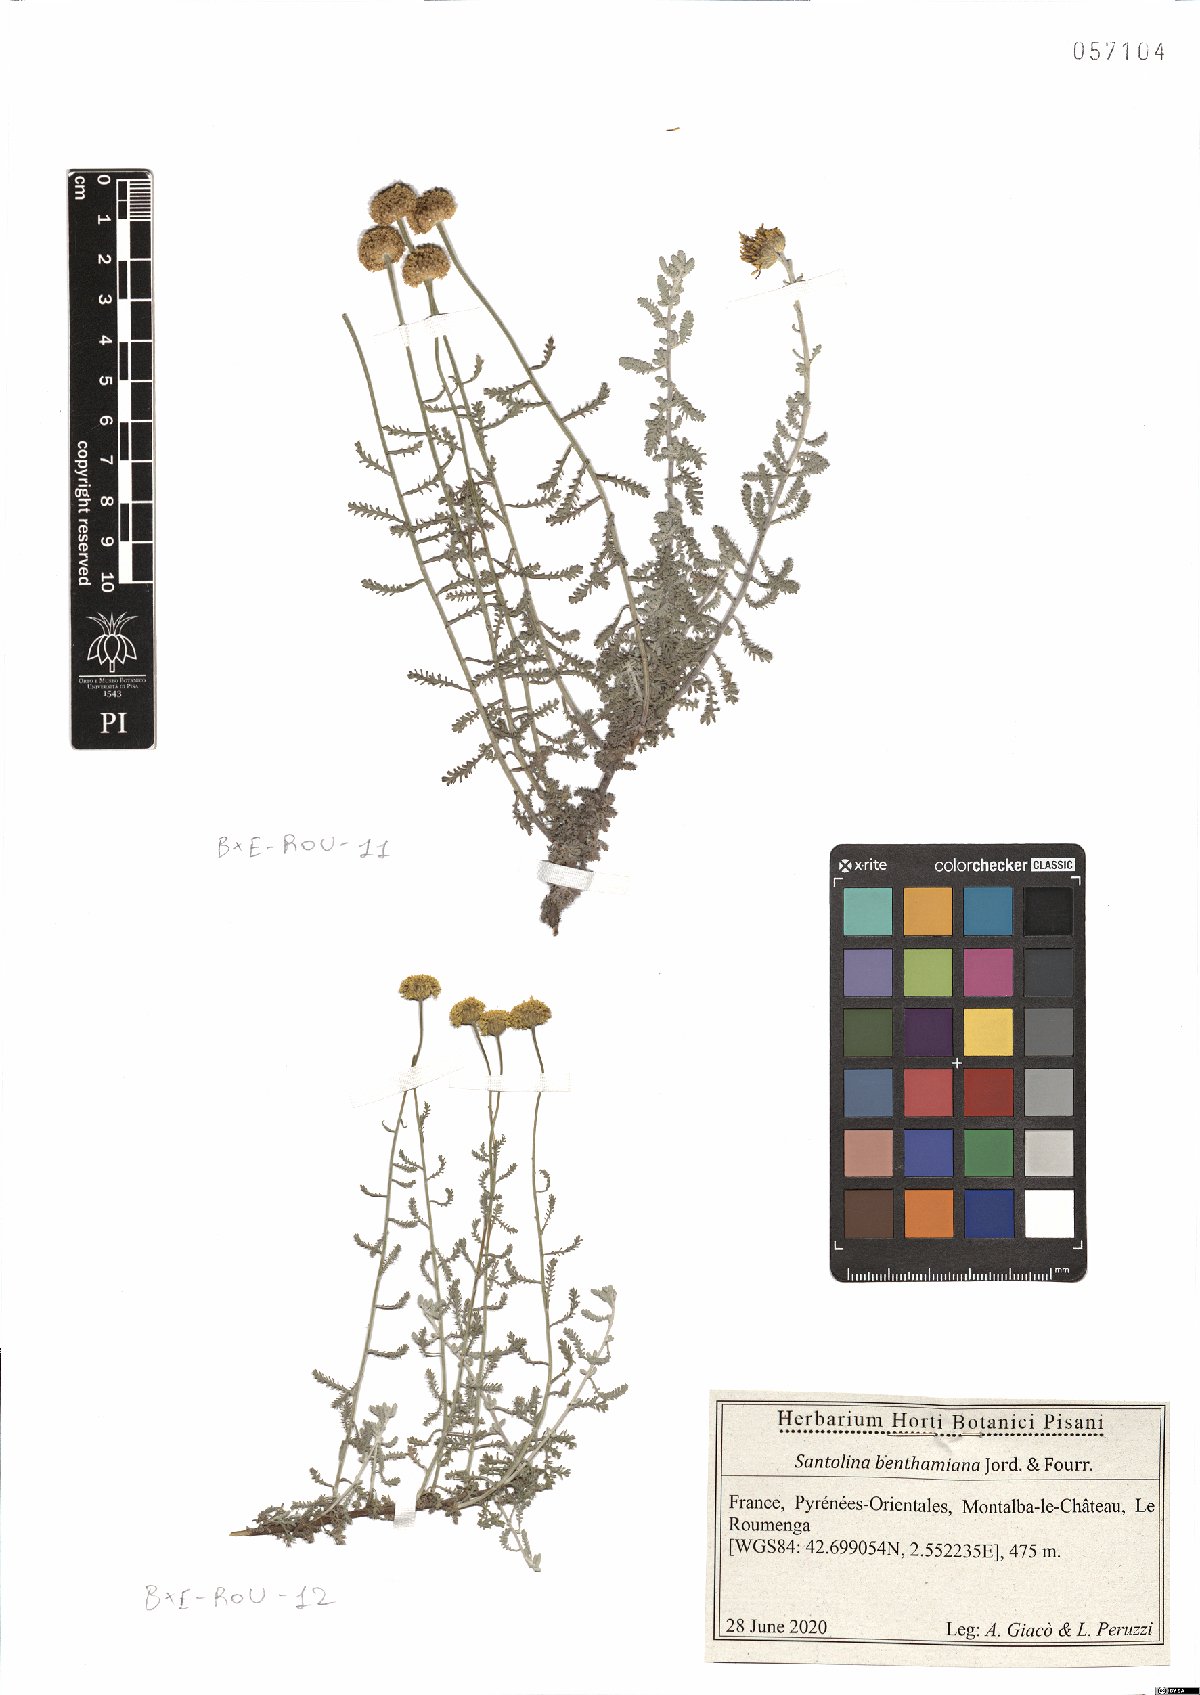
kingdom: Plantae
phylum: Tracheophyta
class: Magnoliopsida
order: Asterales
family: Asteraceae
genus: Santolina
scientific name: Santolina benthamiana
